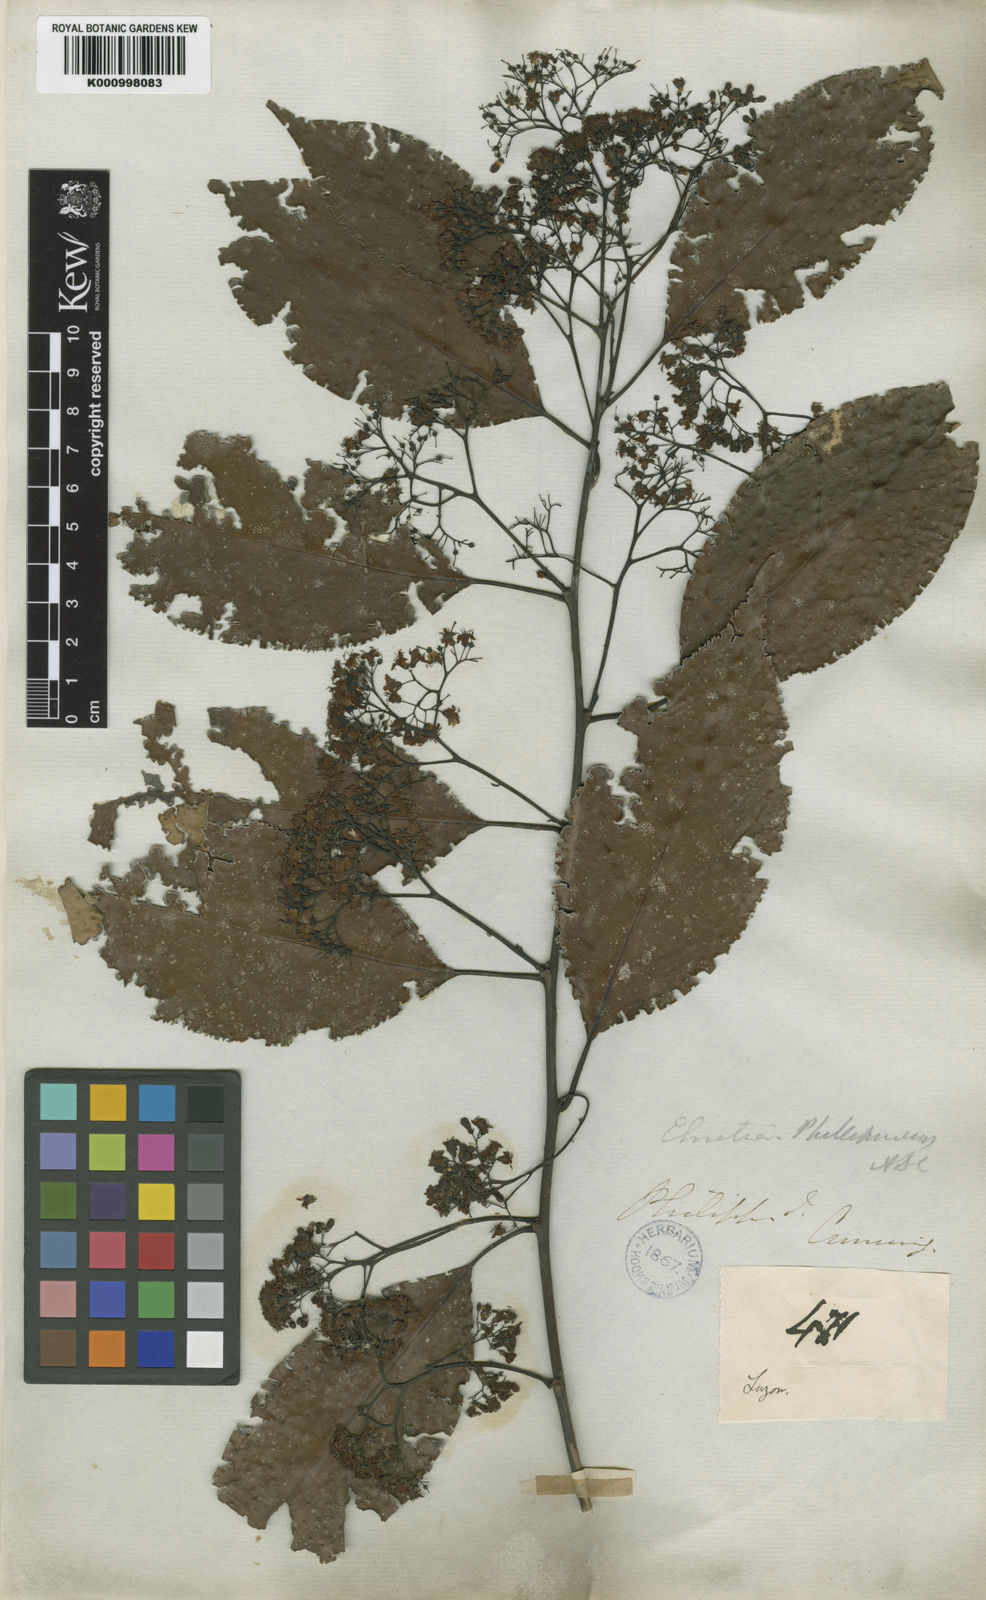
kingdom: Plantae
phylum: Tracheophyta
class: Magnoliopsida
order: Boraginales
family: Ehretiaceae
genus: Ehretia
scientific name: Ehretia philippinensis
